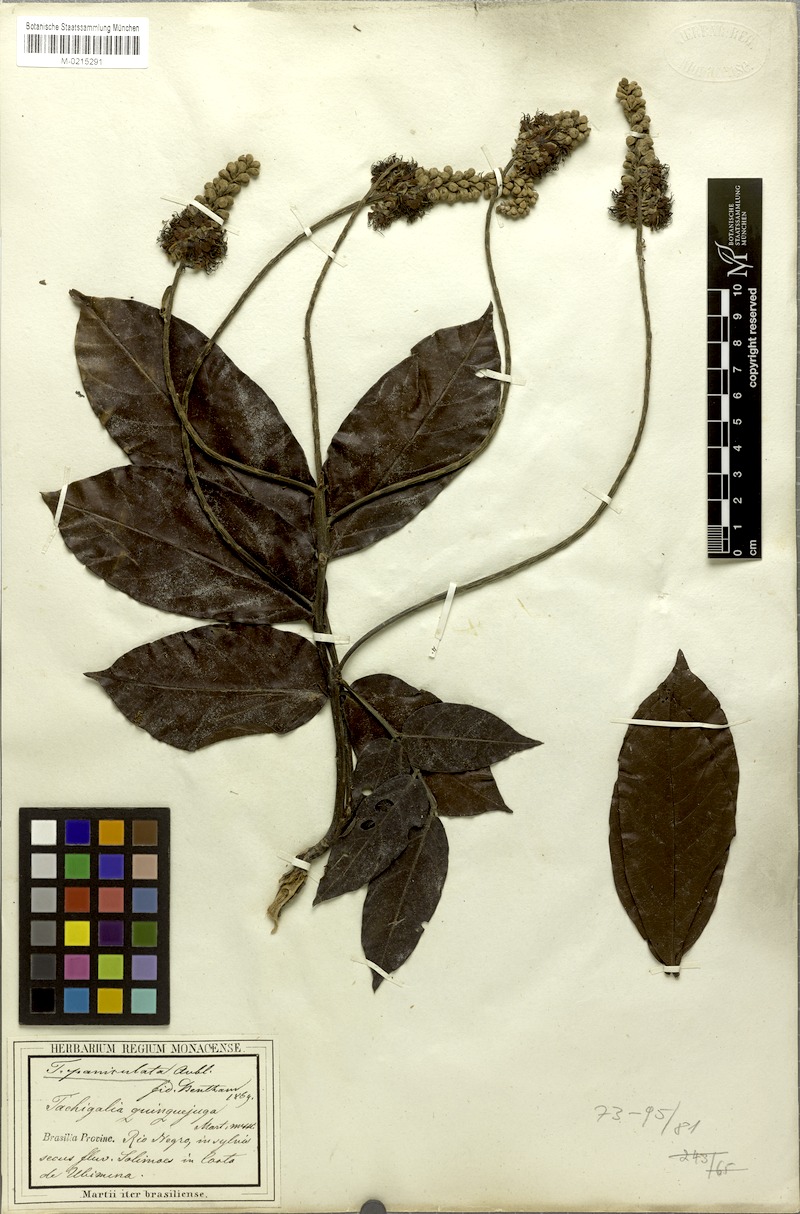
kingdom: Plantae
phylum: Tracheophyta
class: Magnoliopsida
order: Fabales
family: Fabaceae
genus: Tachigali
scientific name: Tachigali paniculata
